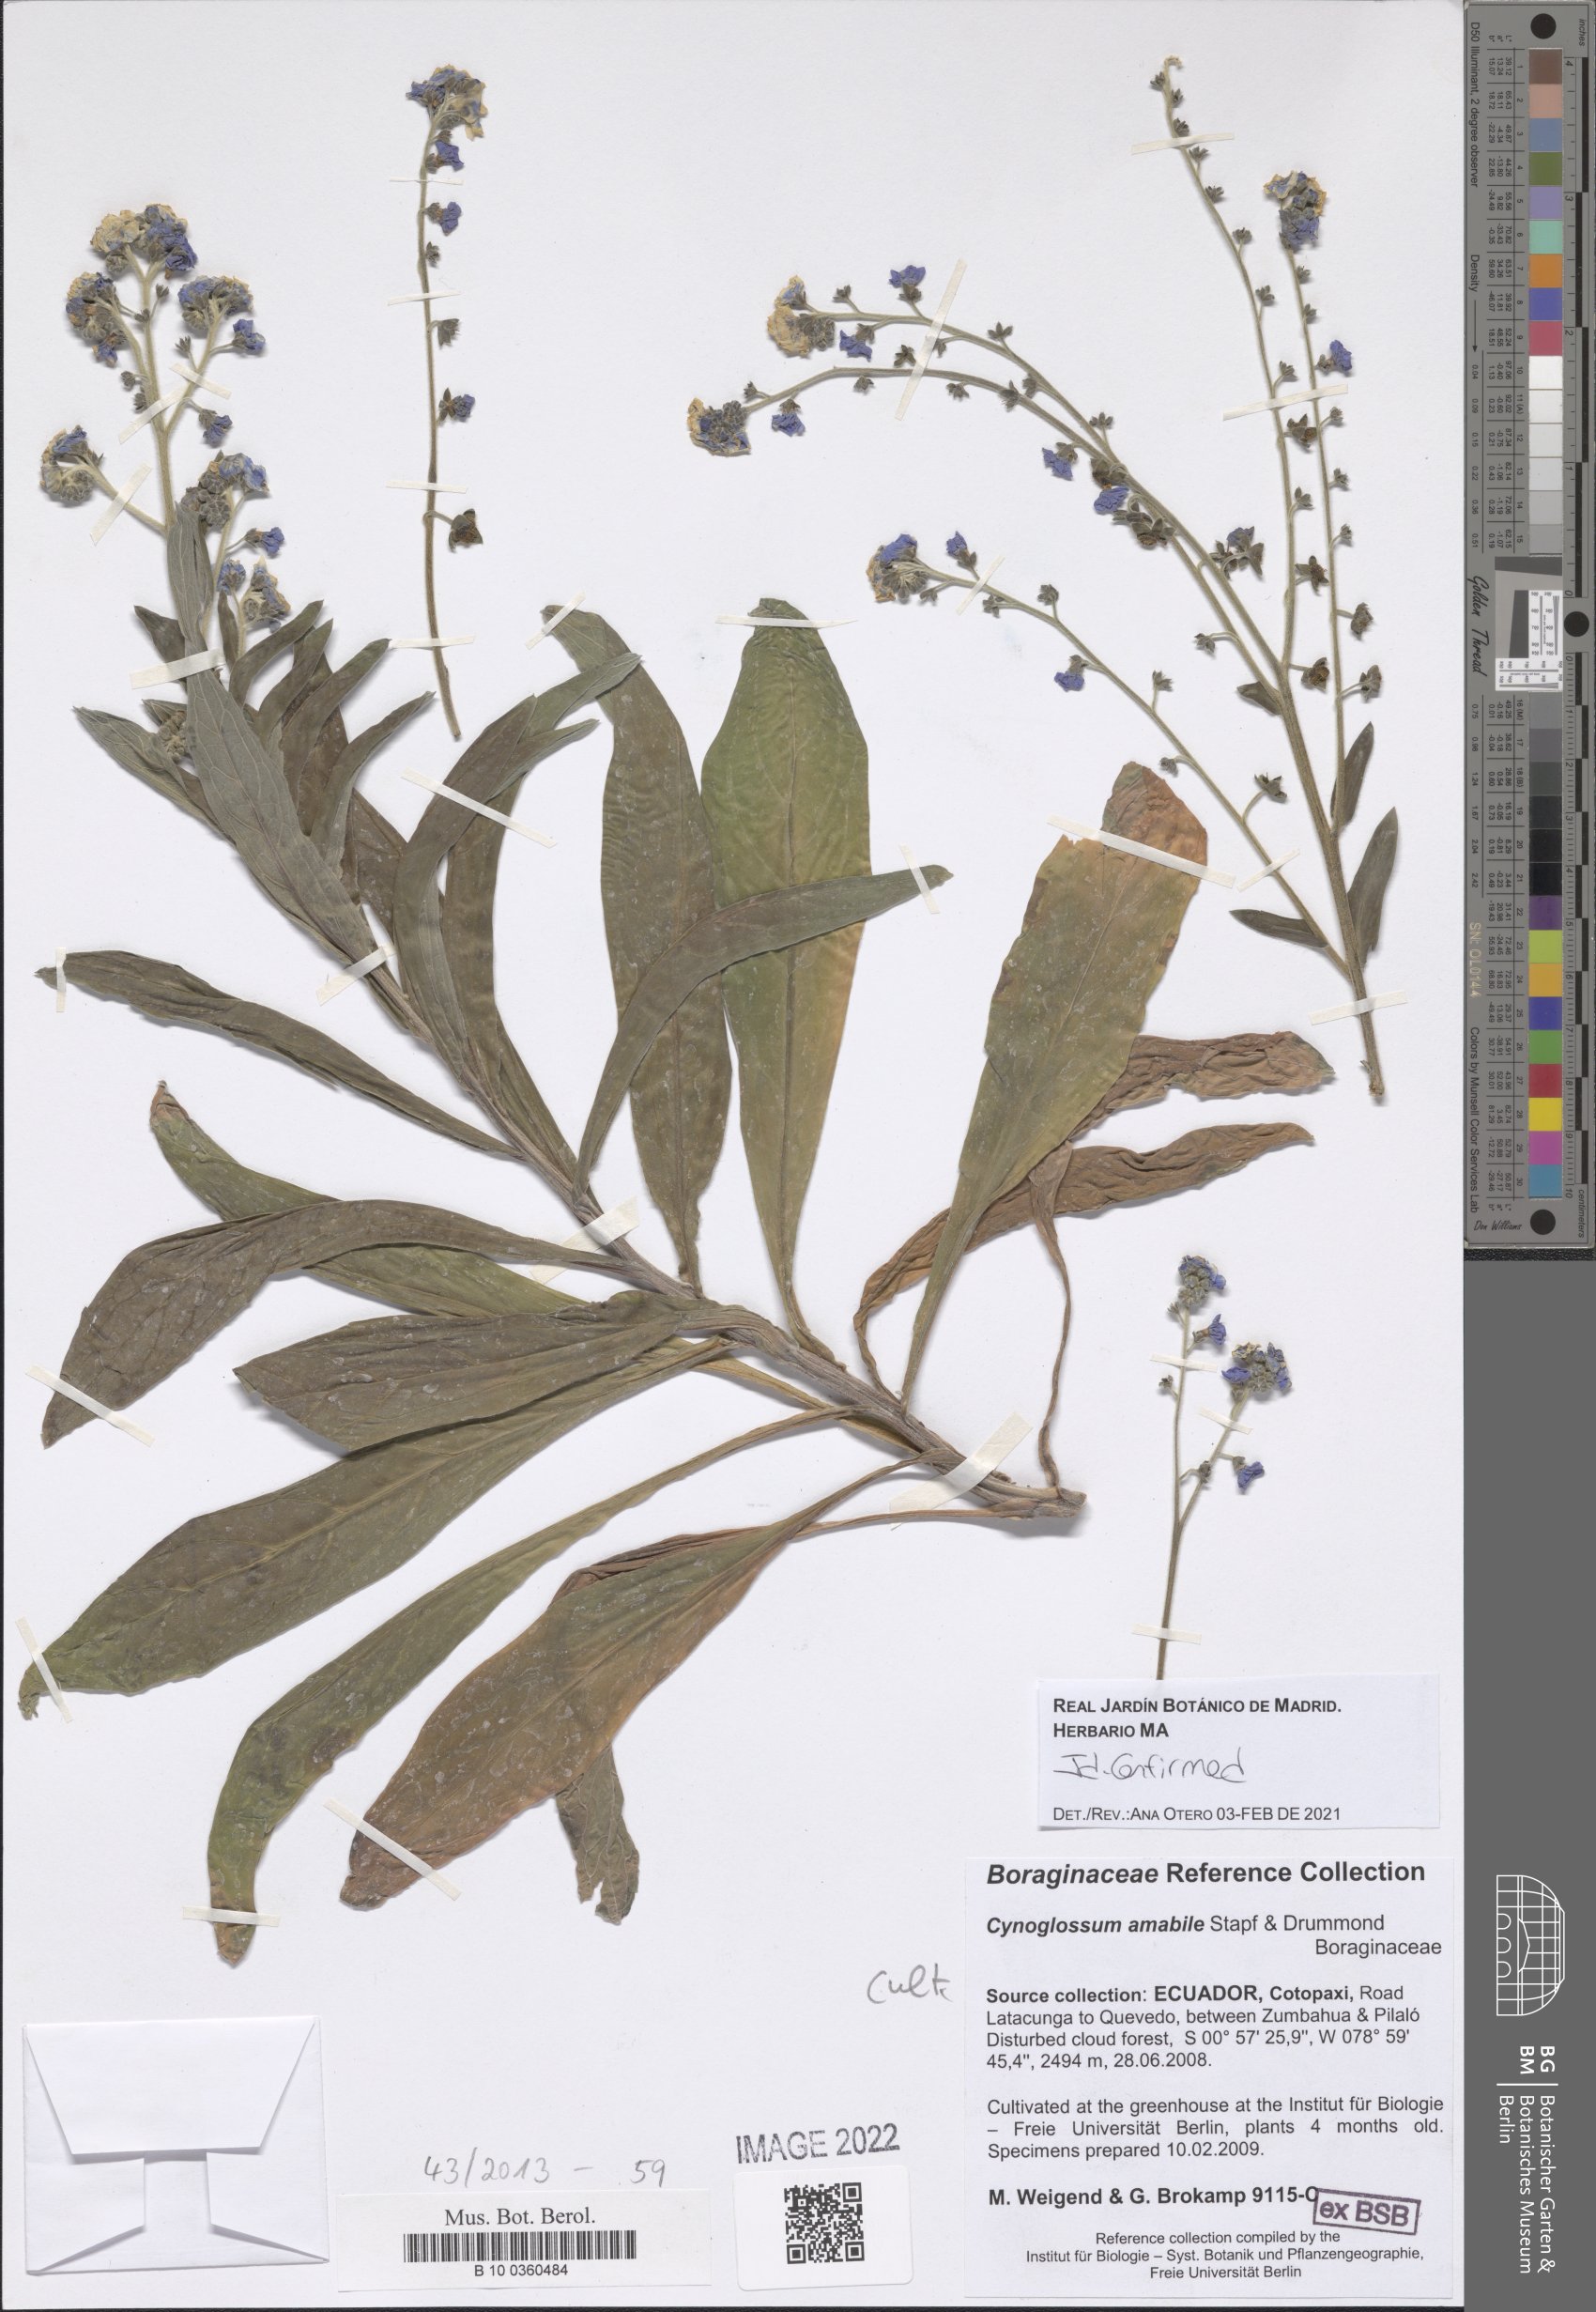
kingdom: Plantae
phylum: Tracheophyta
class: Magnoliopsida
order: Boraginales
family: Boraginaceae
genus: Cynoglossum
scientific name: Cynoglossum amabile
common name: Chinese hound's tongue
